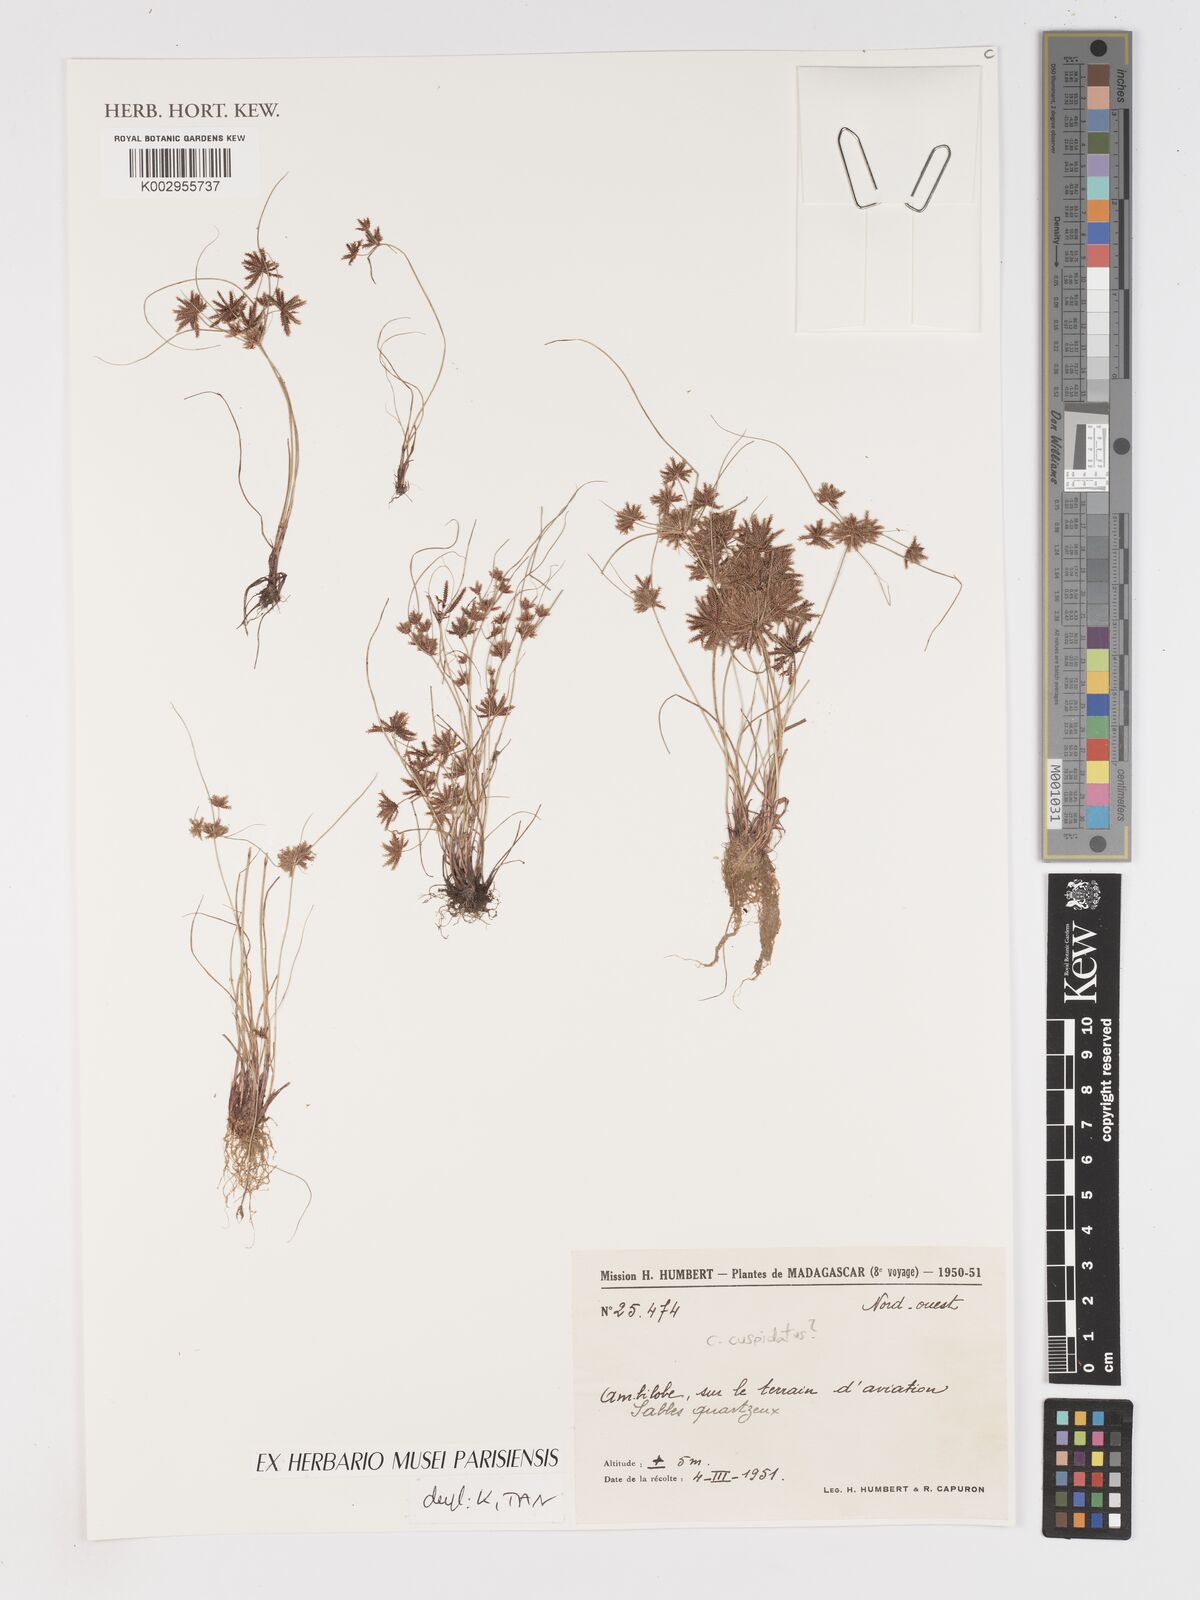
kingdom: Plantae
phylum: Tracheophyta
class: Liliopsida
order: Poales
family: Cyperaceae
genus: Cyperus
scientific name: Cyperus cuspidatus
